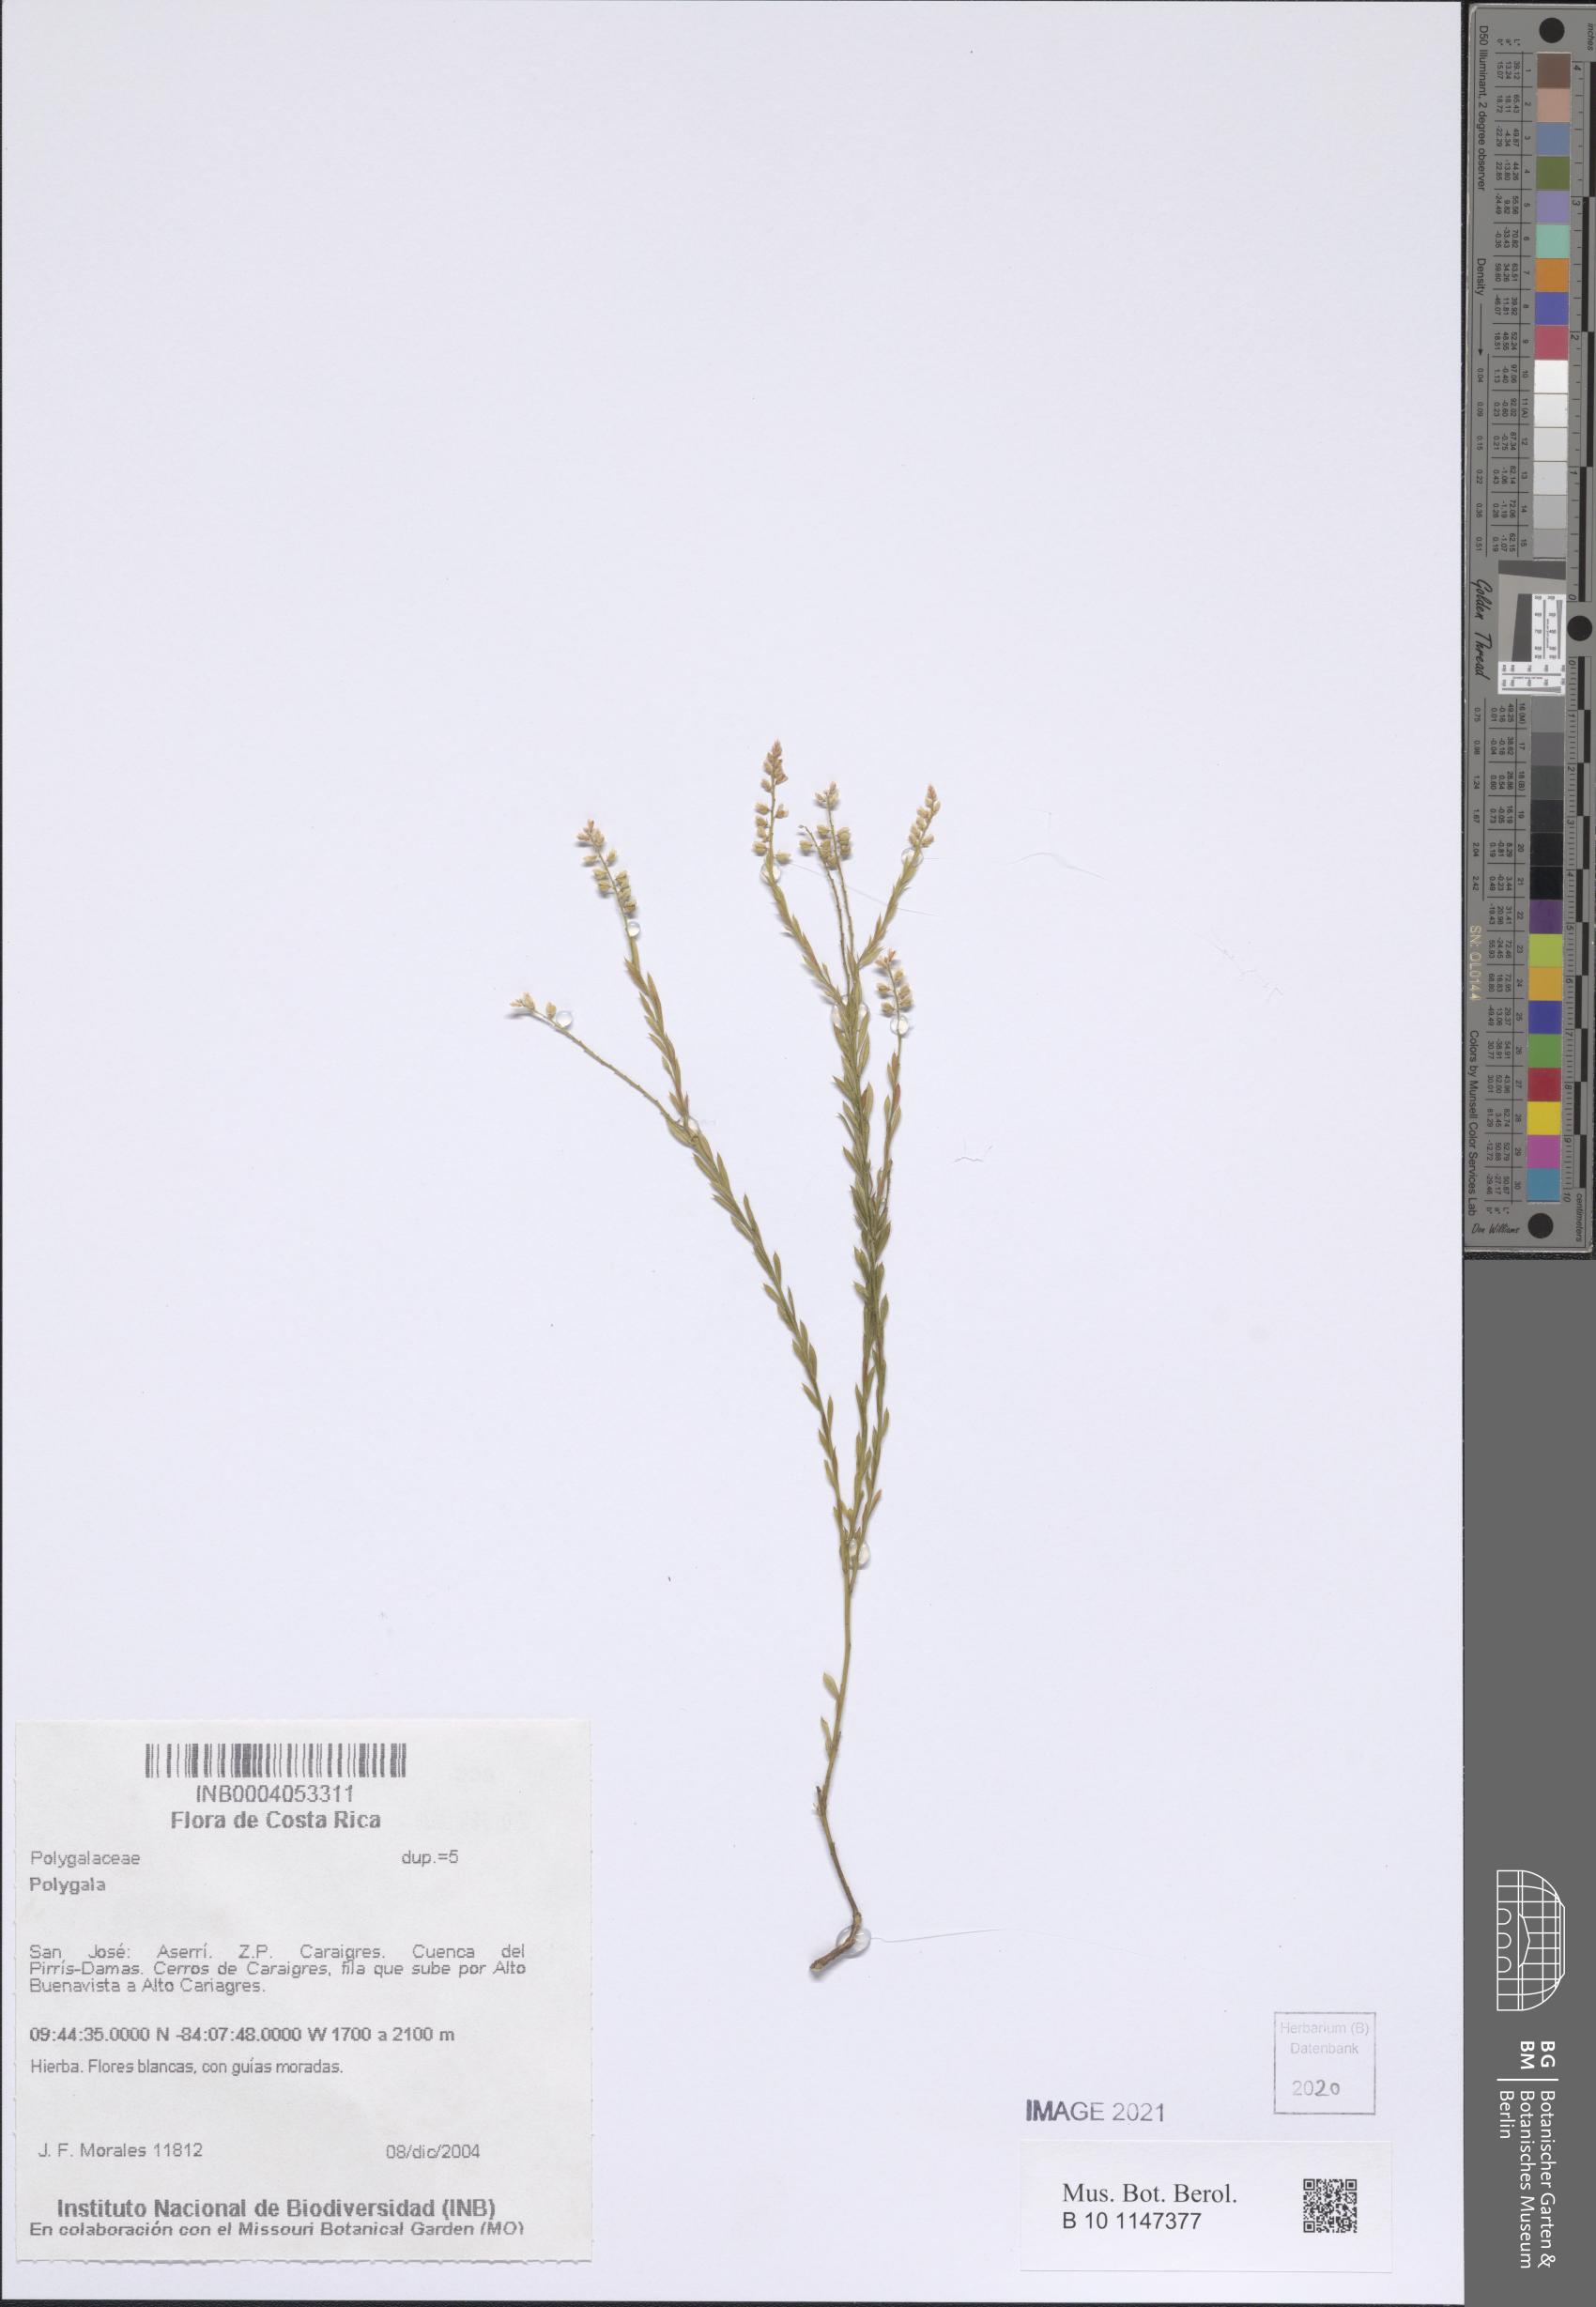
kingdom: Plantae
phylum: Tracheophyta
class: Magnoliopsida
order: Fabales
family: Polygalaceae
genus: Polygala
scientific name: Polygala
